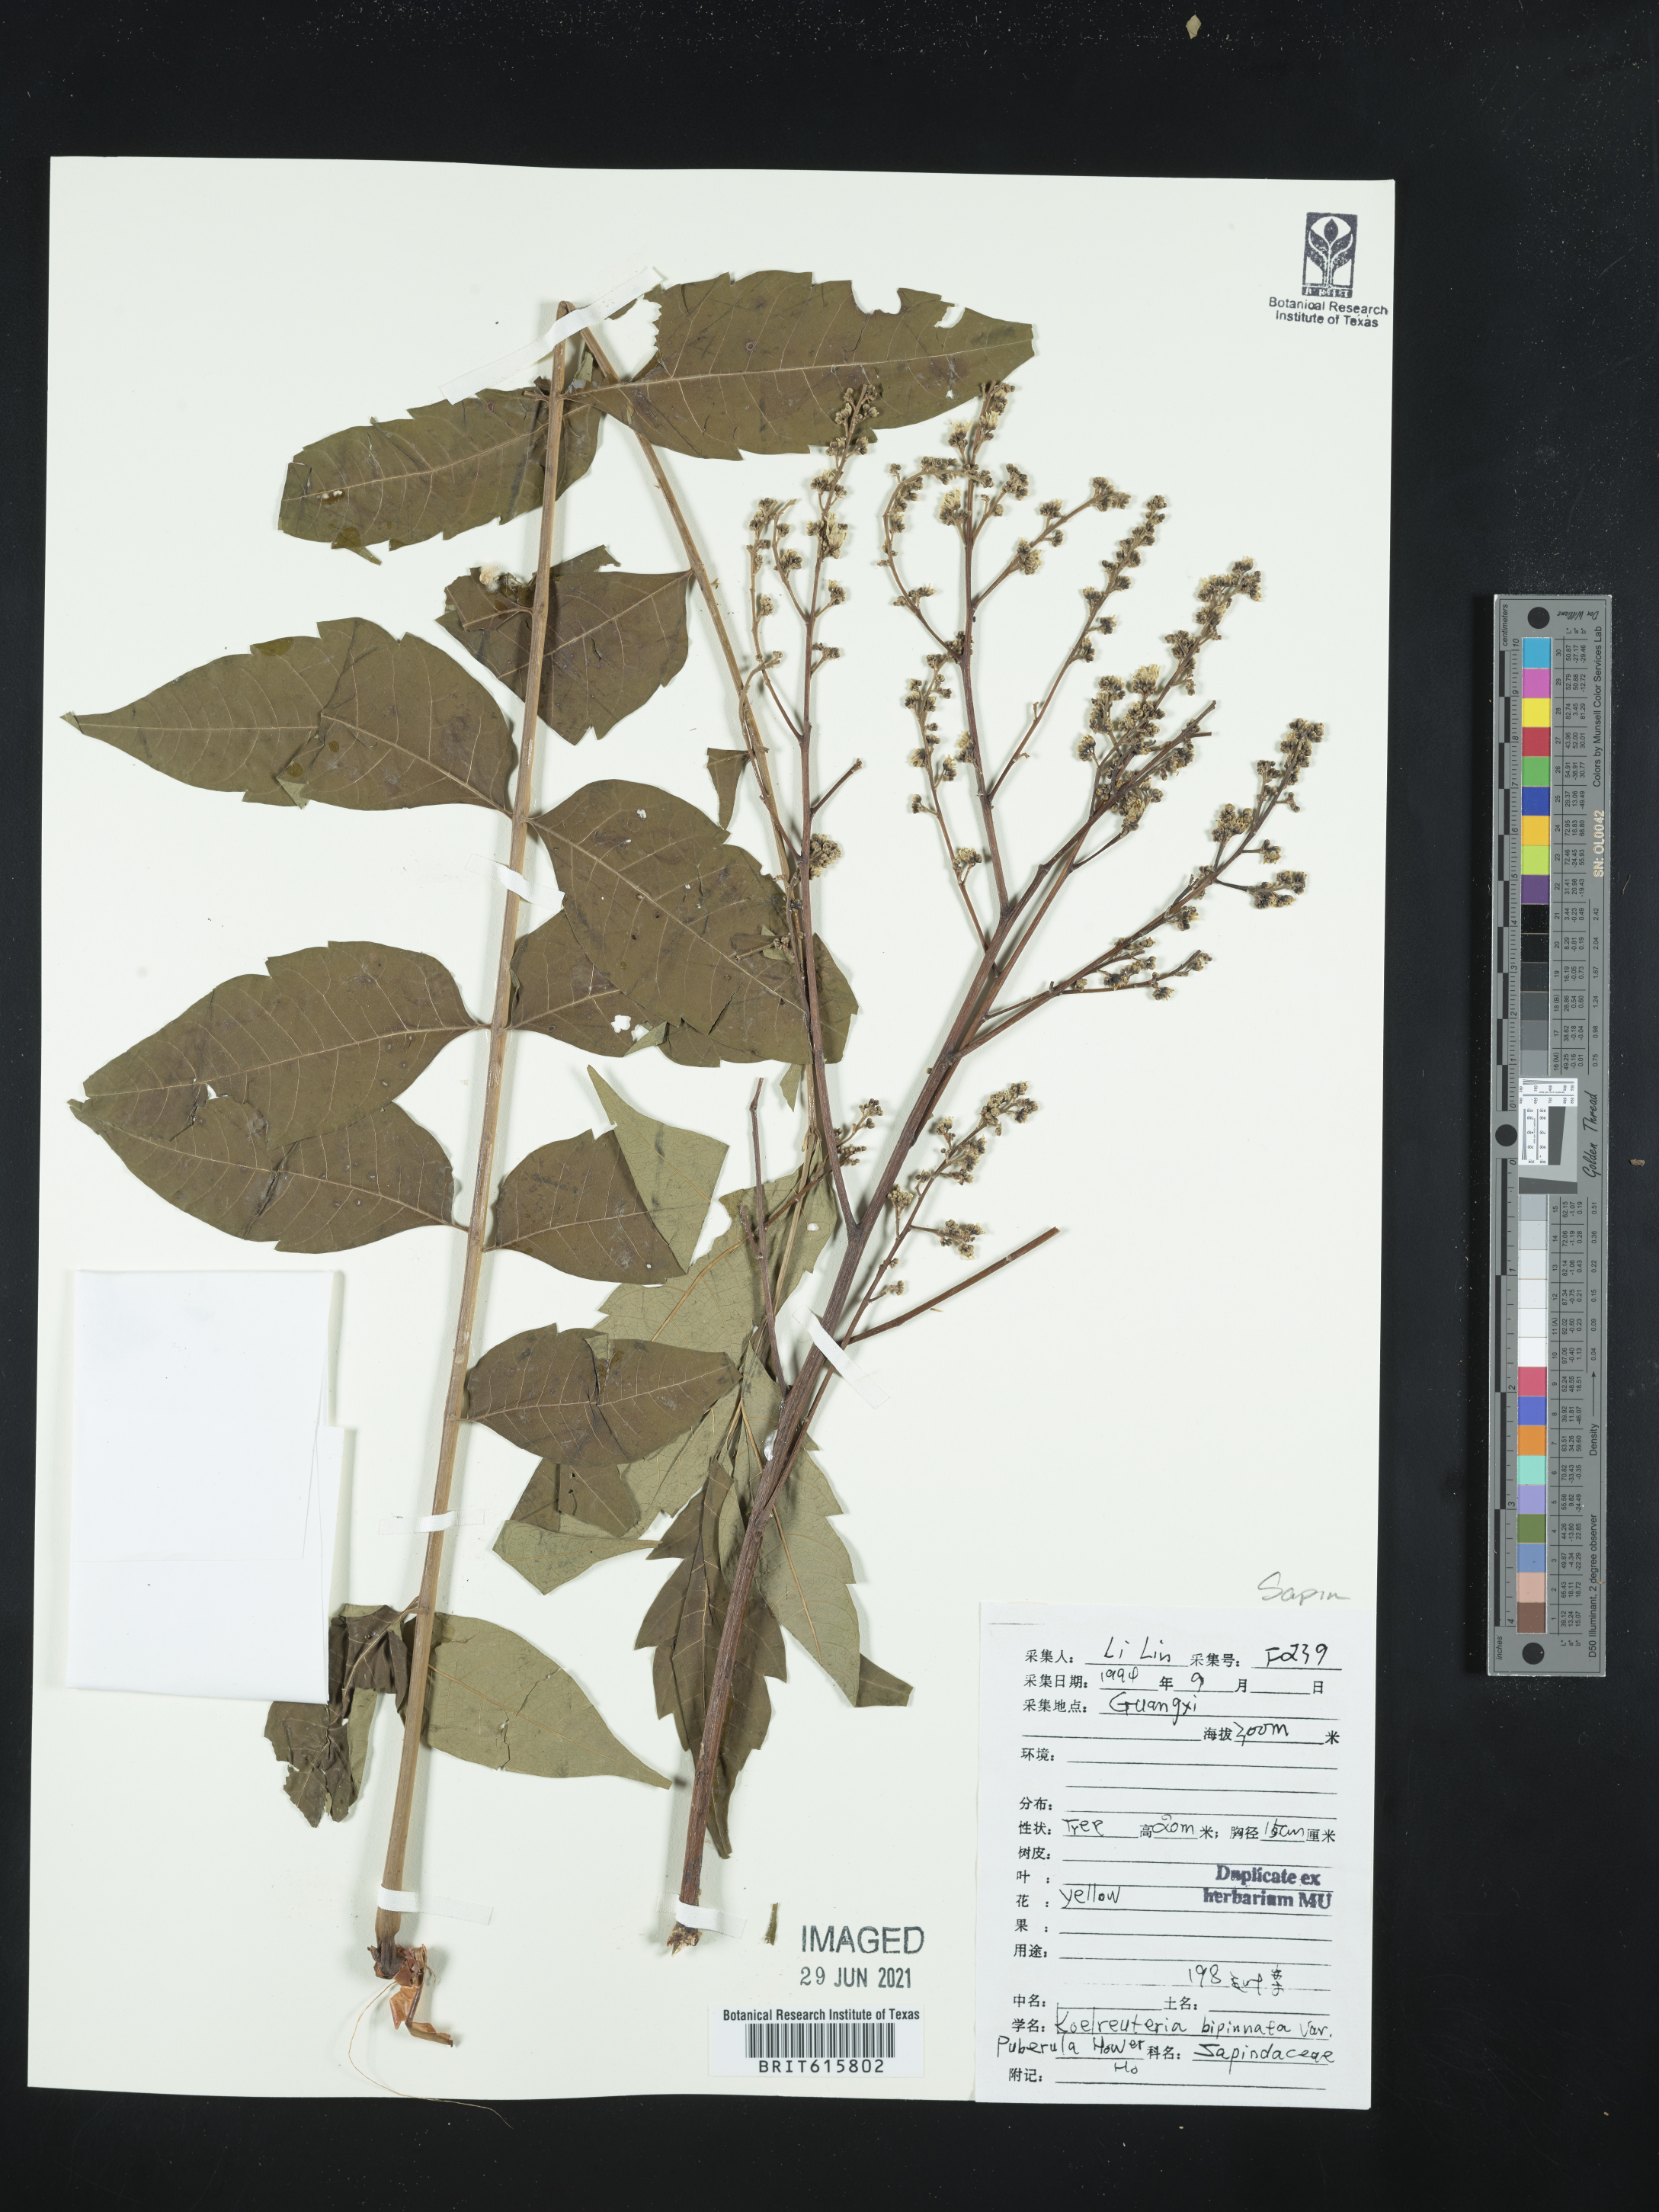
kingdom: Plantae
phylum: Tracheophyta
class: Magnoliopsida
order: Sapindales
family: Sapindaceae
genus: Koelreuteria
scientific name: Koelreuteria bipinnata
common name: Goldenrain tree
